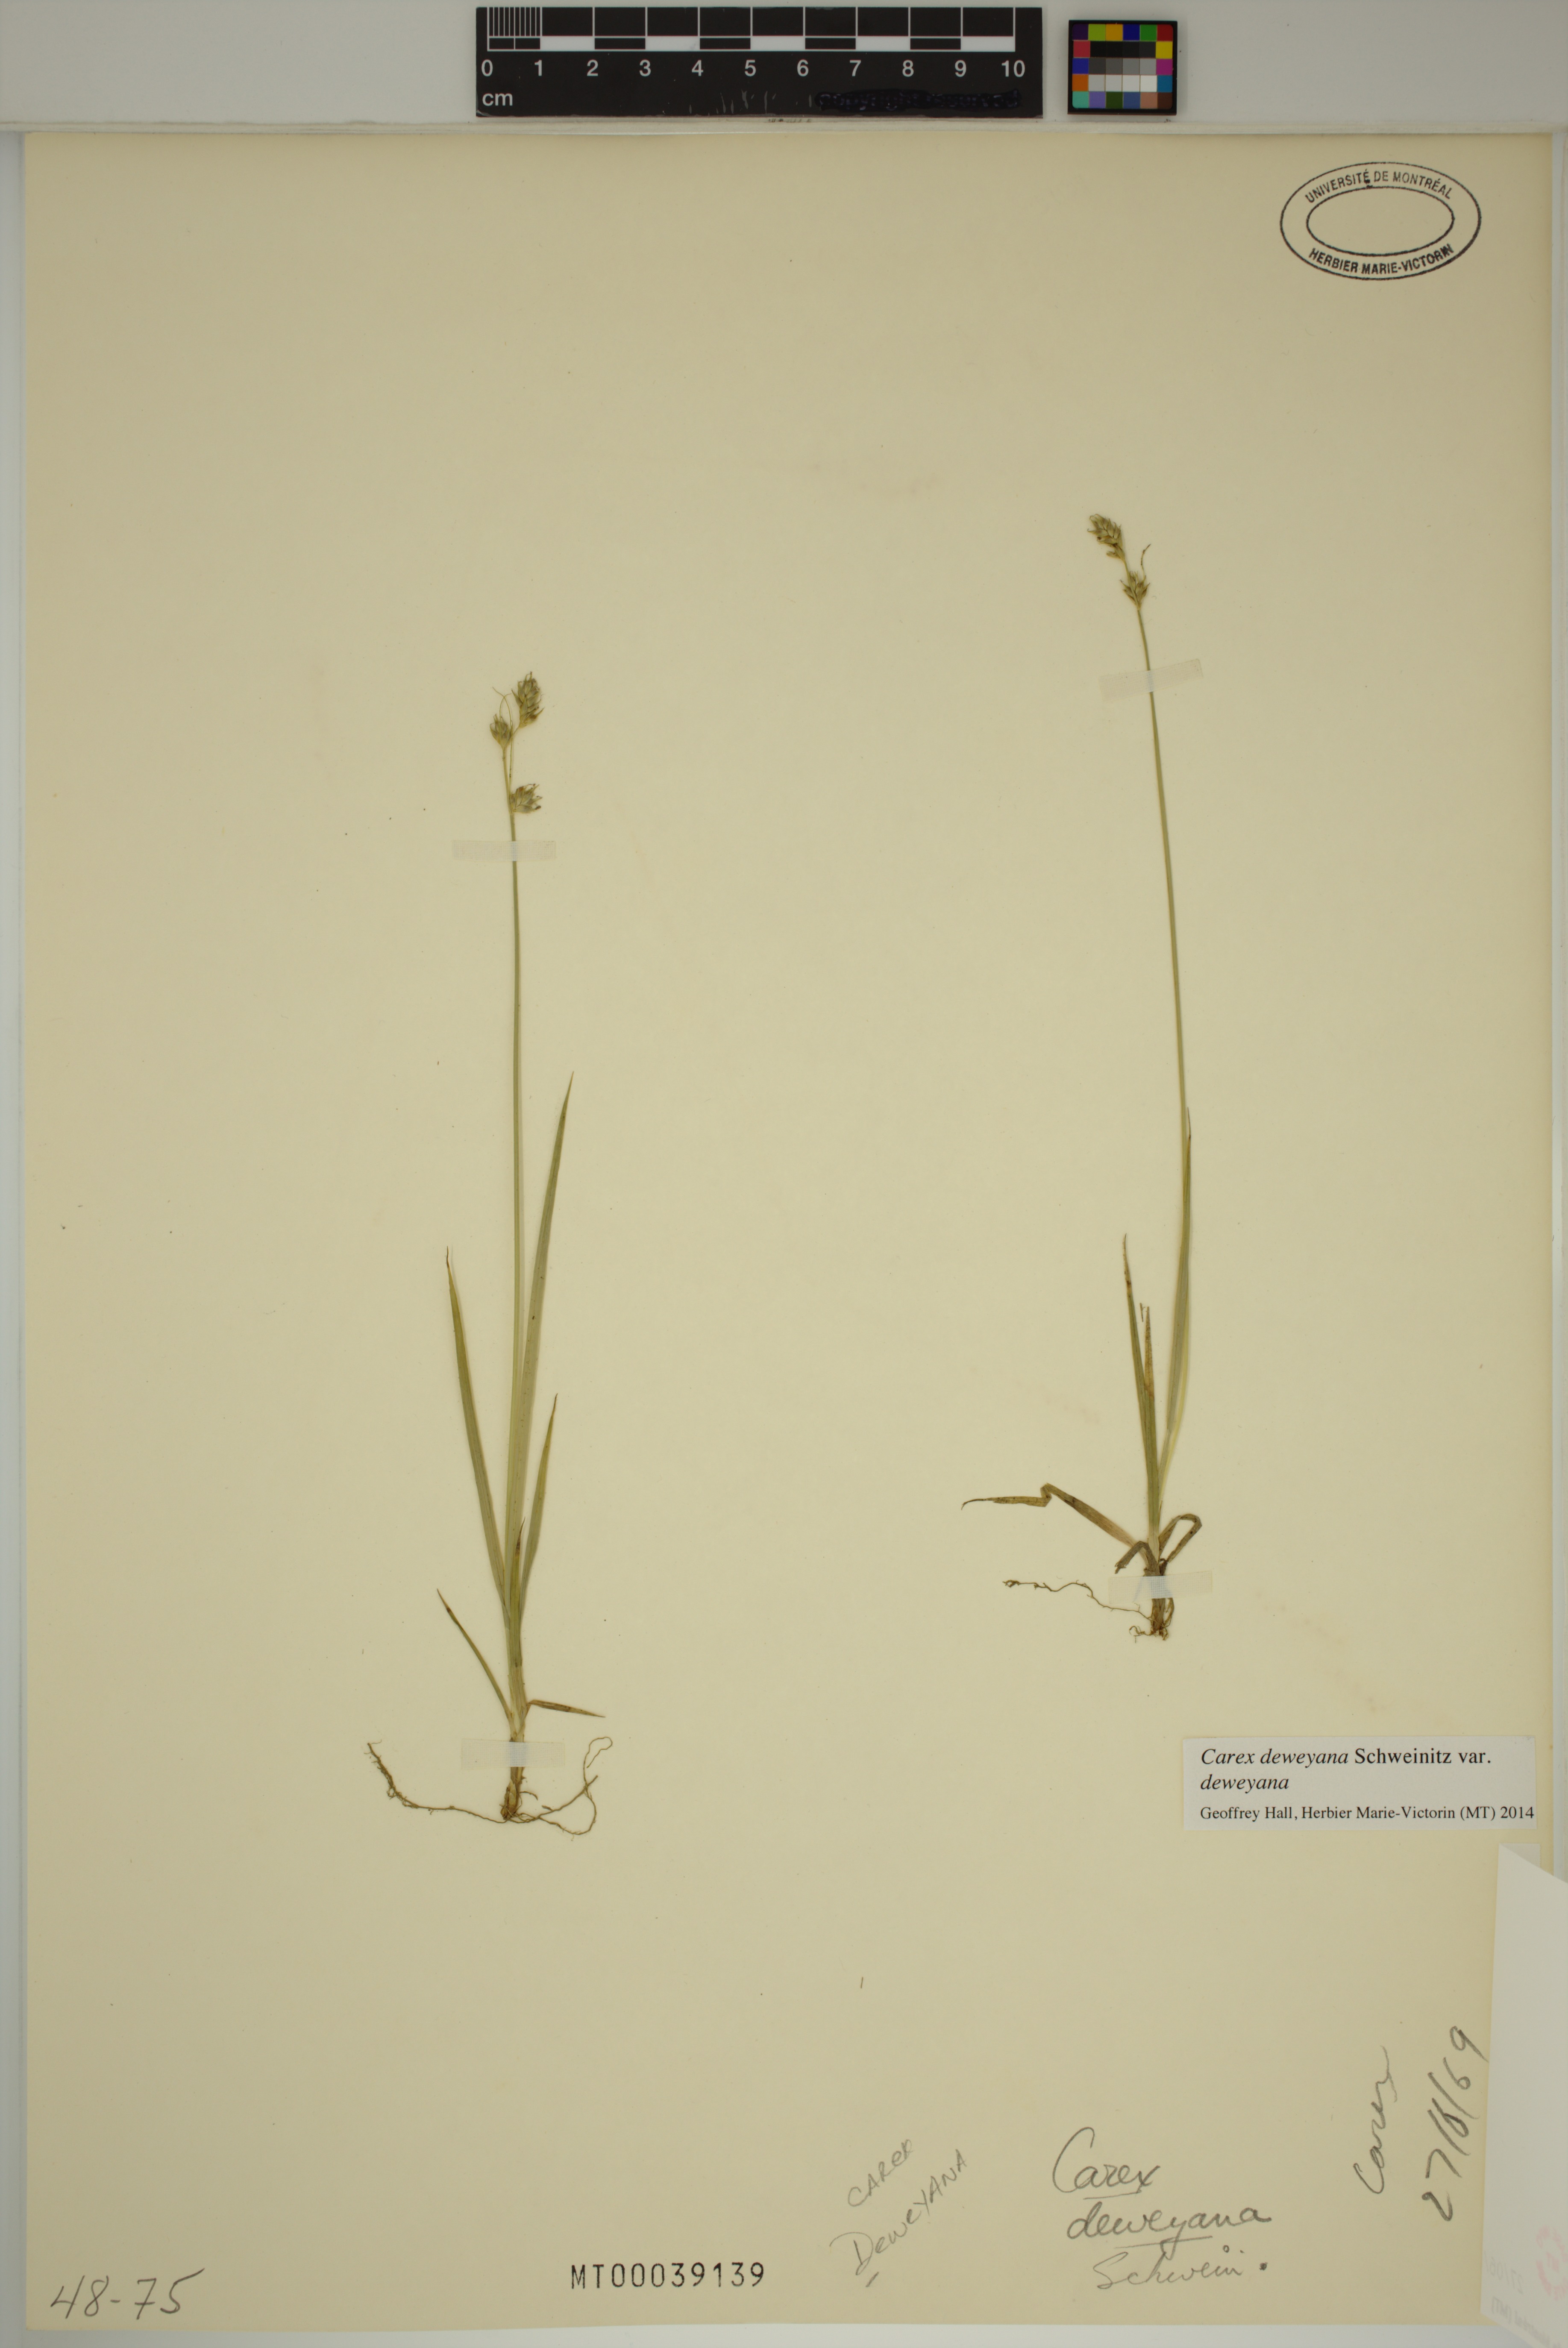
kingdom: Plantae
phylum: Tracheophyta
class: Liliopsida
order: Poales
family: Cyperaceae
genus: Carex
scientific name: Carex deweyana
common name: Dewey's sedge
